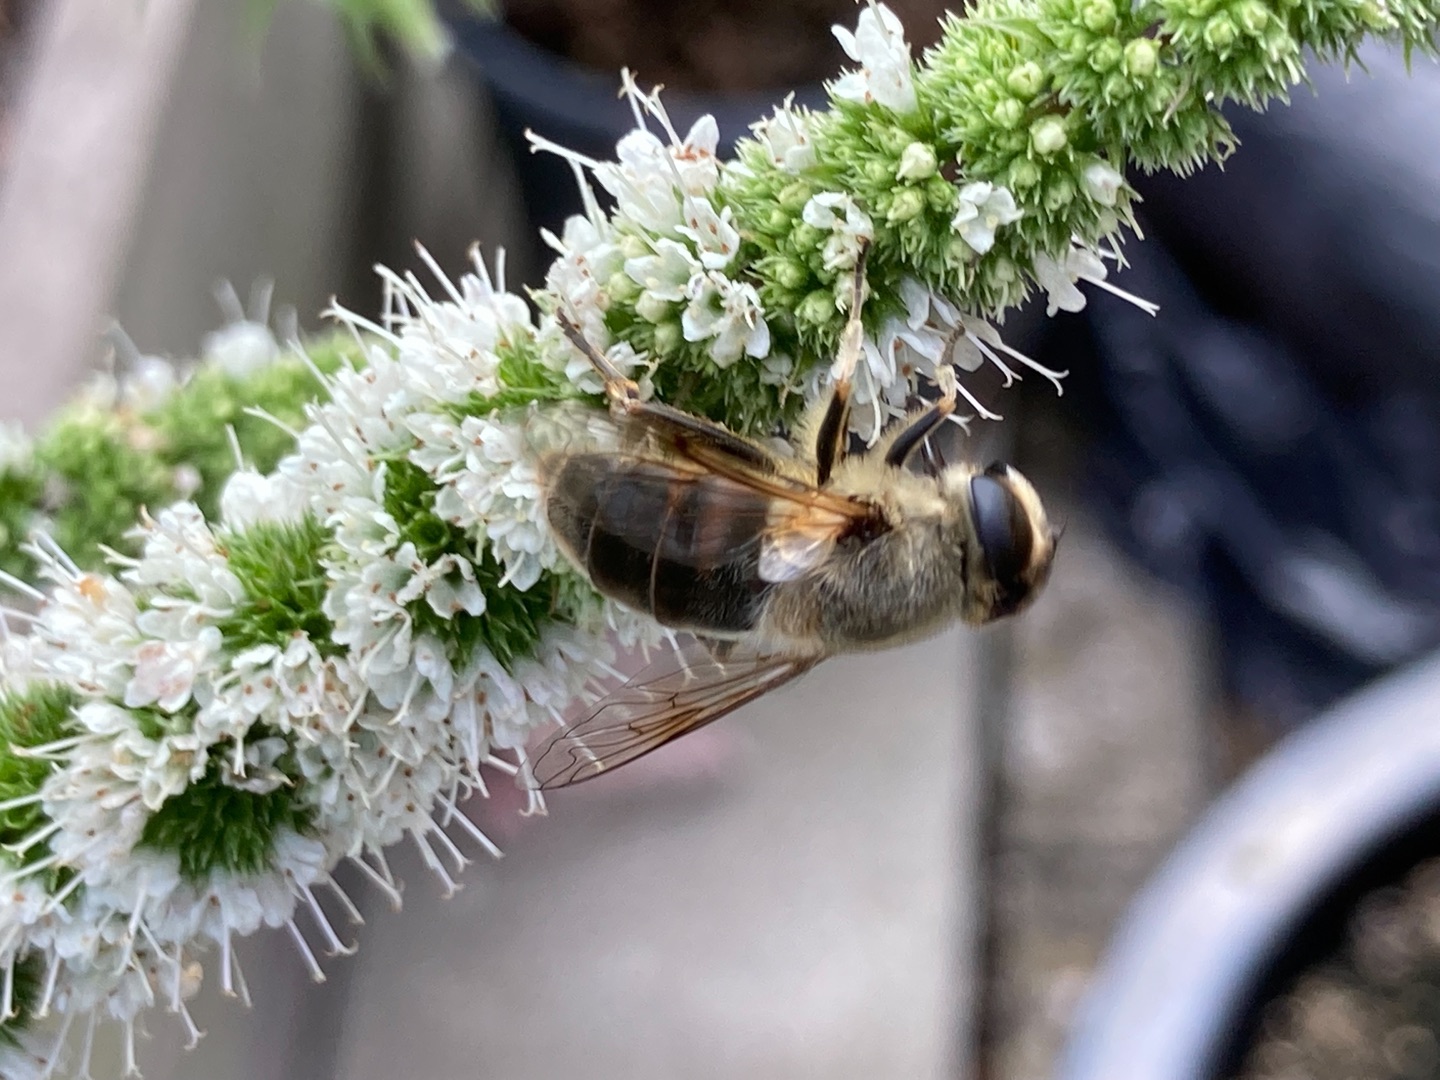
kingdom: Animalia
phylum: Arthropoda
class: Insecta
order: Diptera
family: Syrphidae
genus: Eristalis
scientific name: Eristalis tenax
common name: Droneflue
